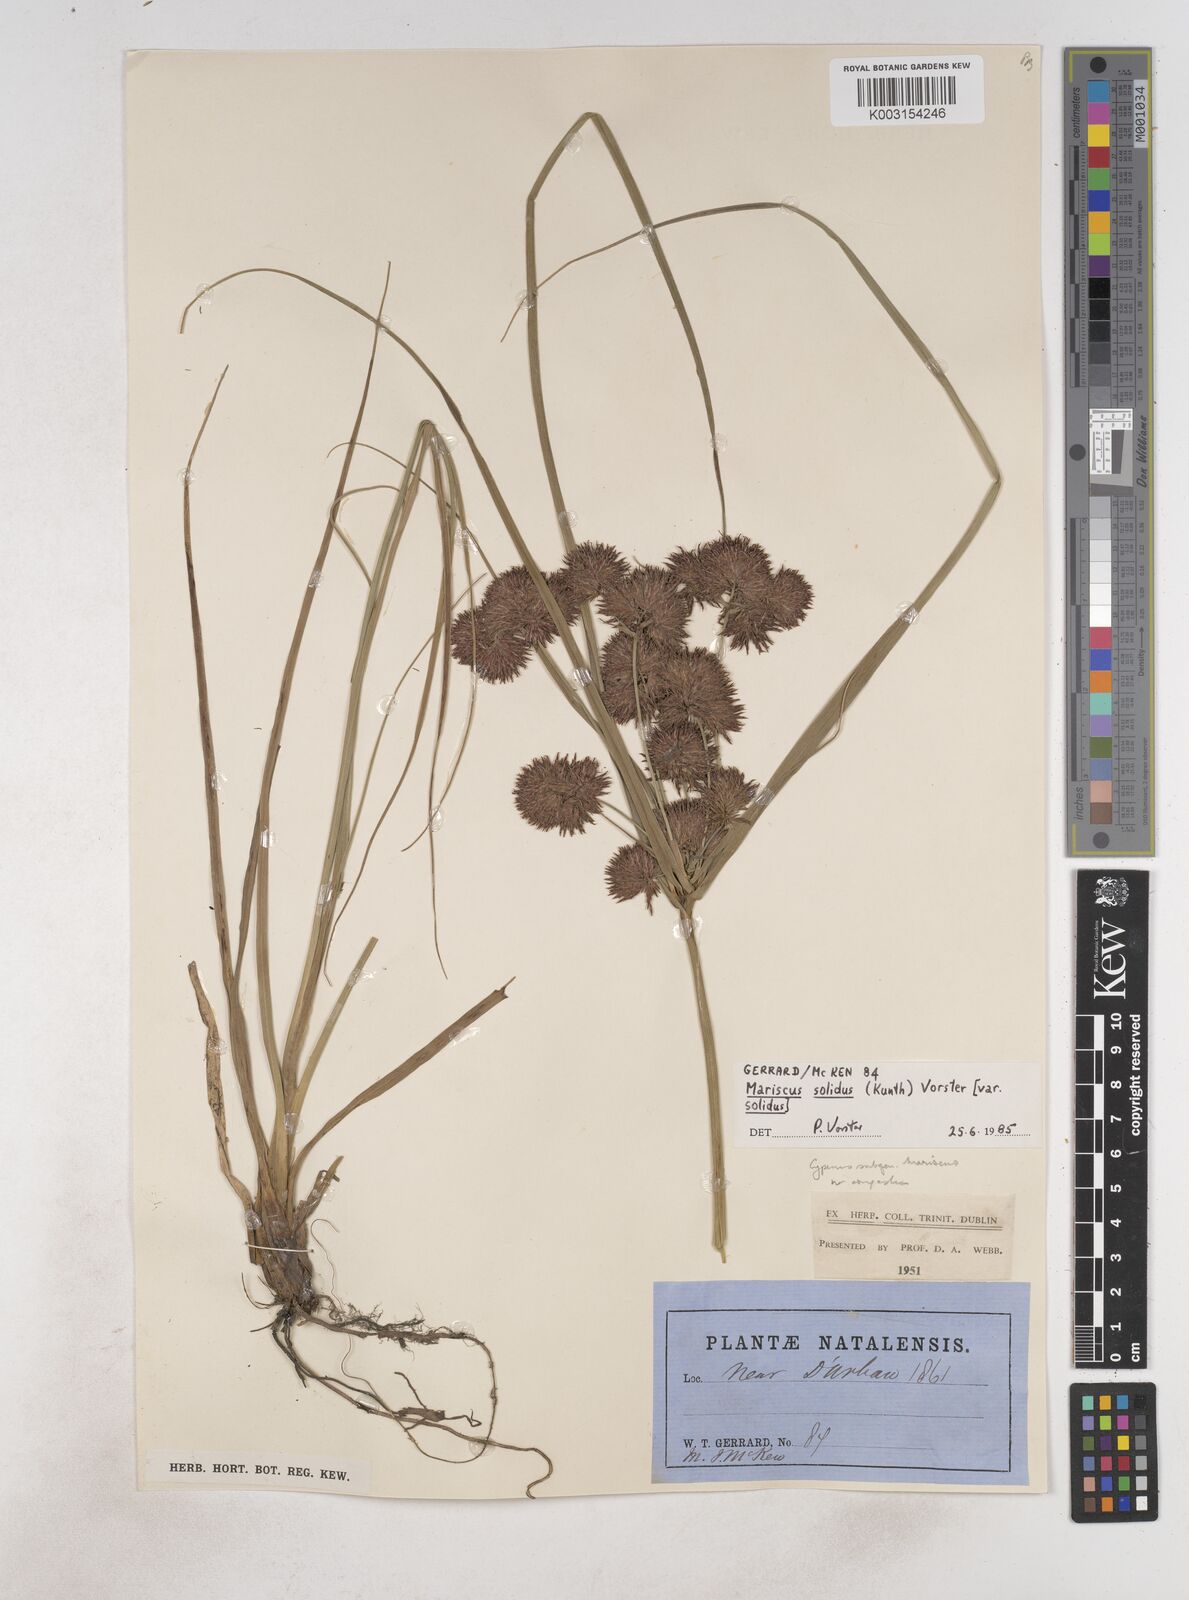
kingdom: Plantae
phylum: Tracheophyta
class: Liliopsida
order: Poales
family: Cyperaceae
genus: Cyperus
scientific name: Cyperus congestus
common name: Dense flat sedge
